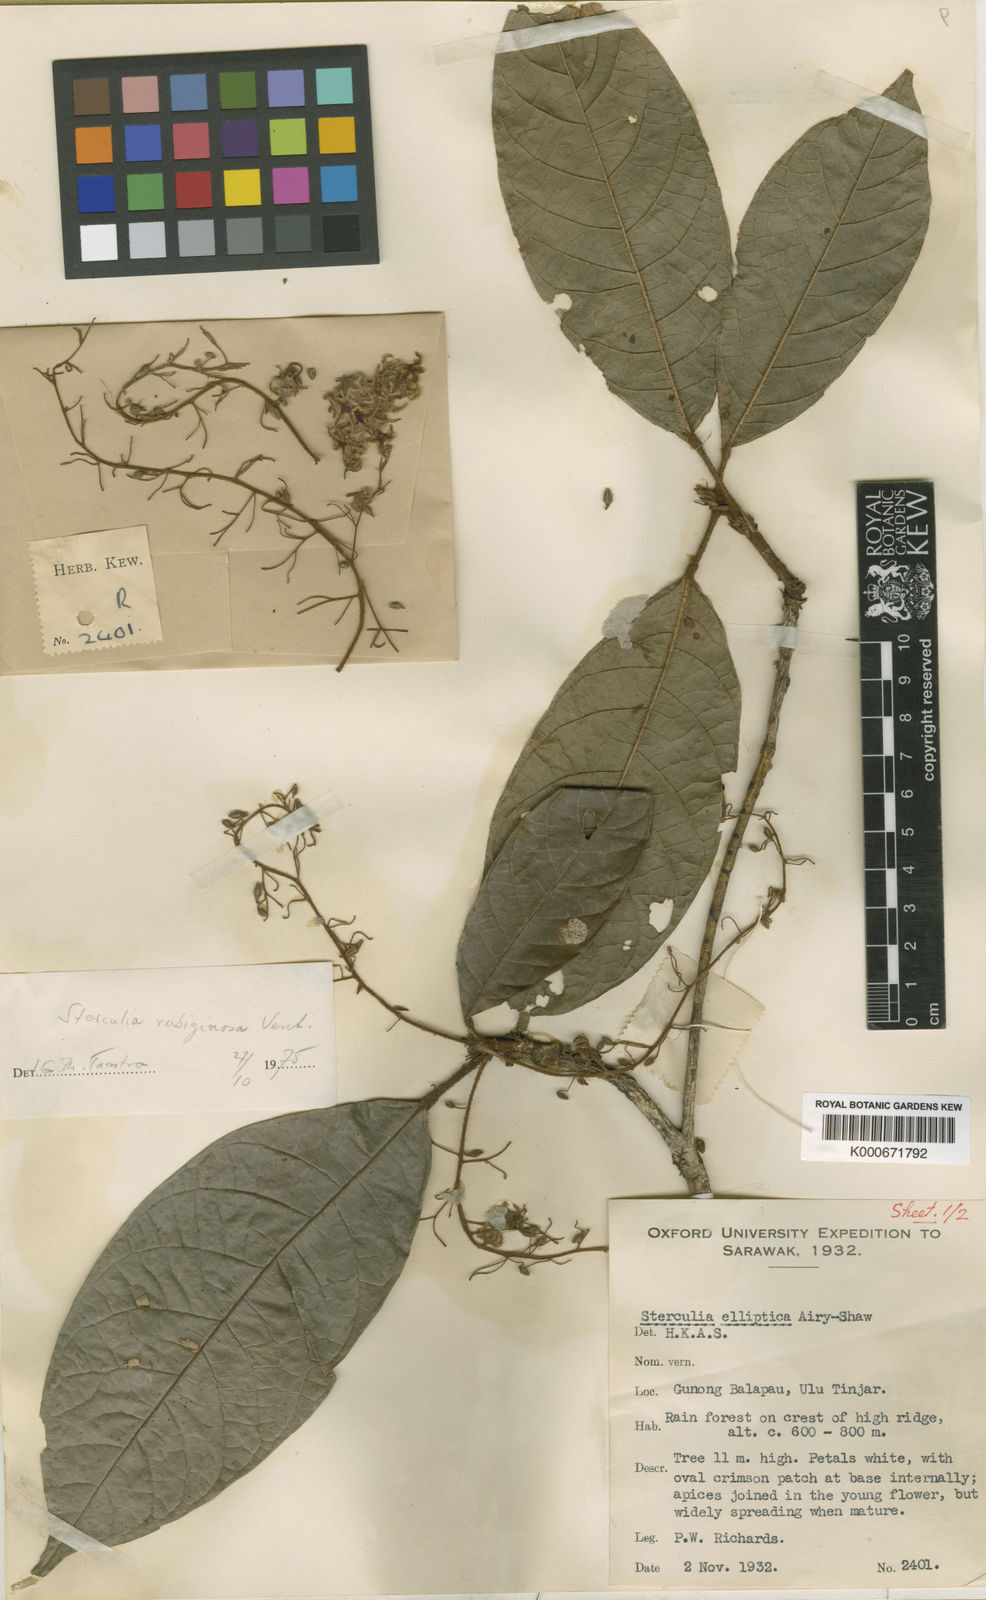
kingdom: Plantae
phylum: Tracheophyta
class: Magnoliopsida
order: Malvales
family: Malvaceae
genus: Sterculia
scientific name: Sterculia rubiginosa
